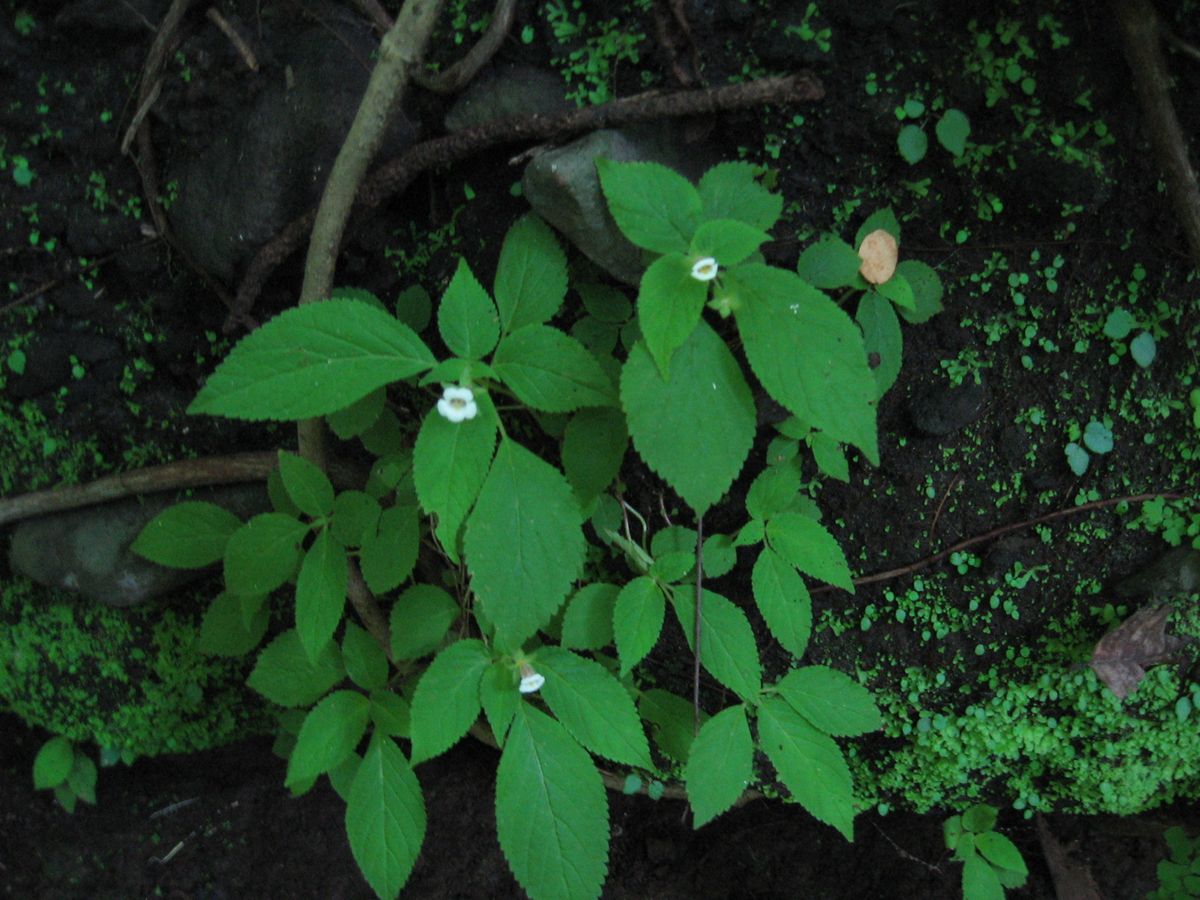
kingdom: Plantae
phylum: Tracheophyta
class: Magnoliopsida
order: Lamiales
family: Gesneriaceae
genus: Achimenes
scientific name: Achimenes misera
